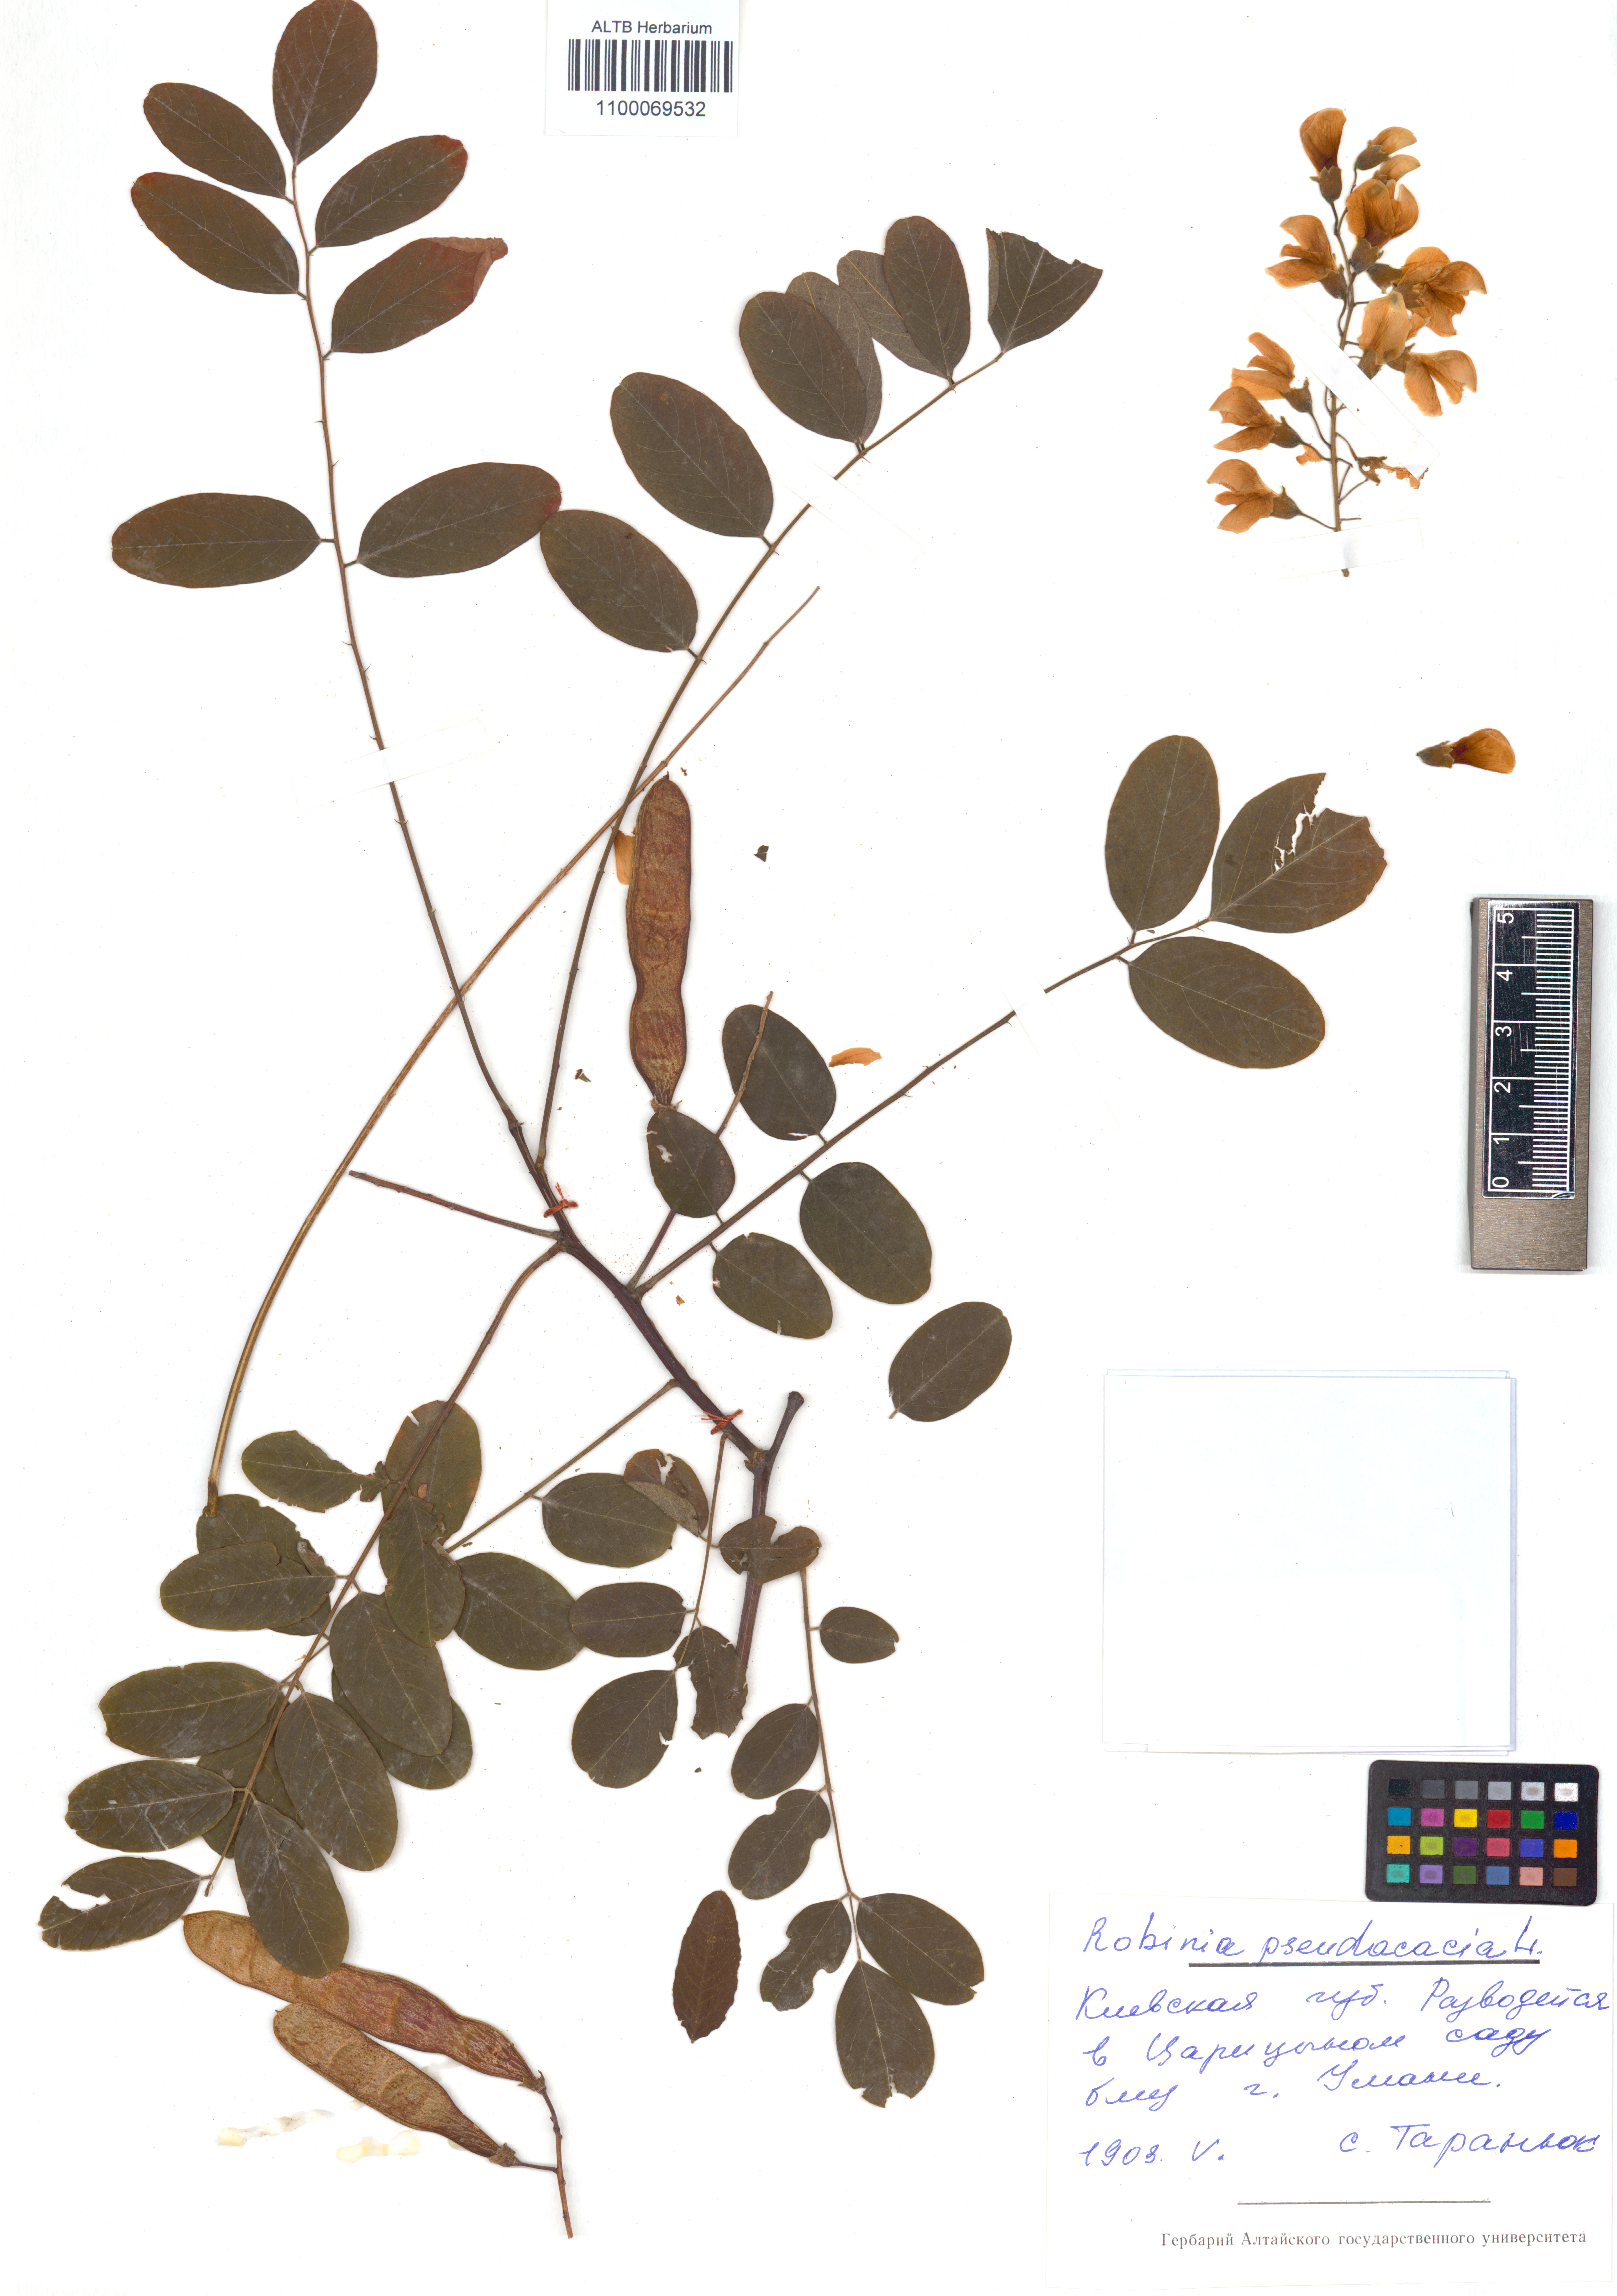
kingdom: Plantae
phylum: Tracheophyta
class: Magnoliopsida
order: Fabales
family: Fabaceae
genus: Robinia
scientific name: Robinia pseudoacacia
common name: Black locust
